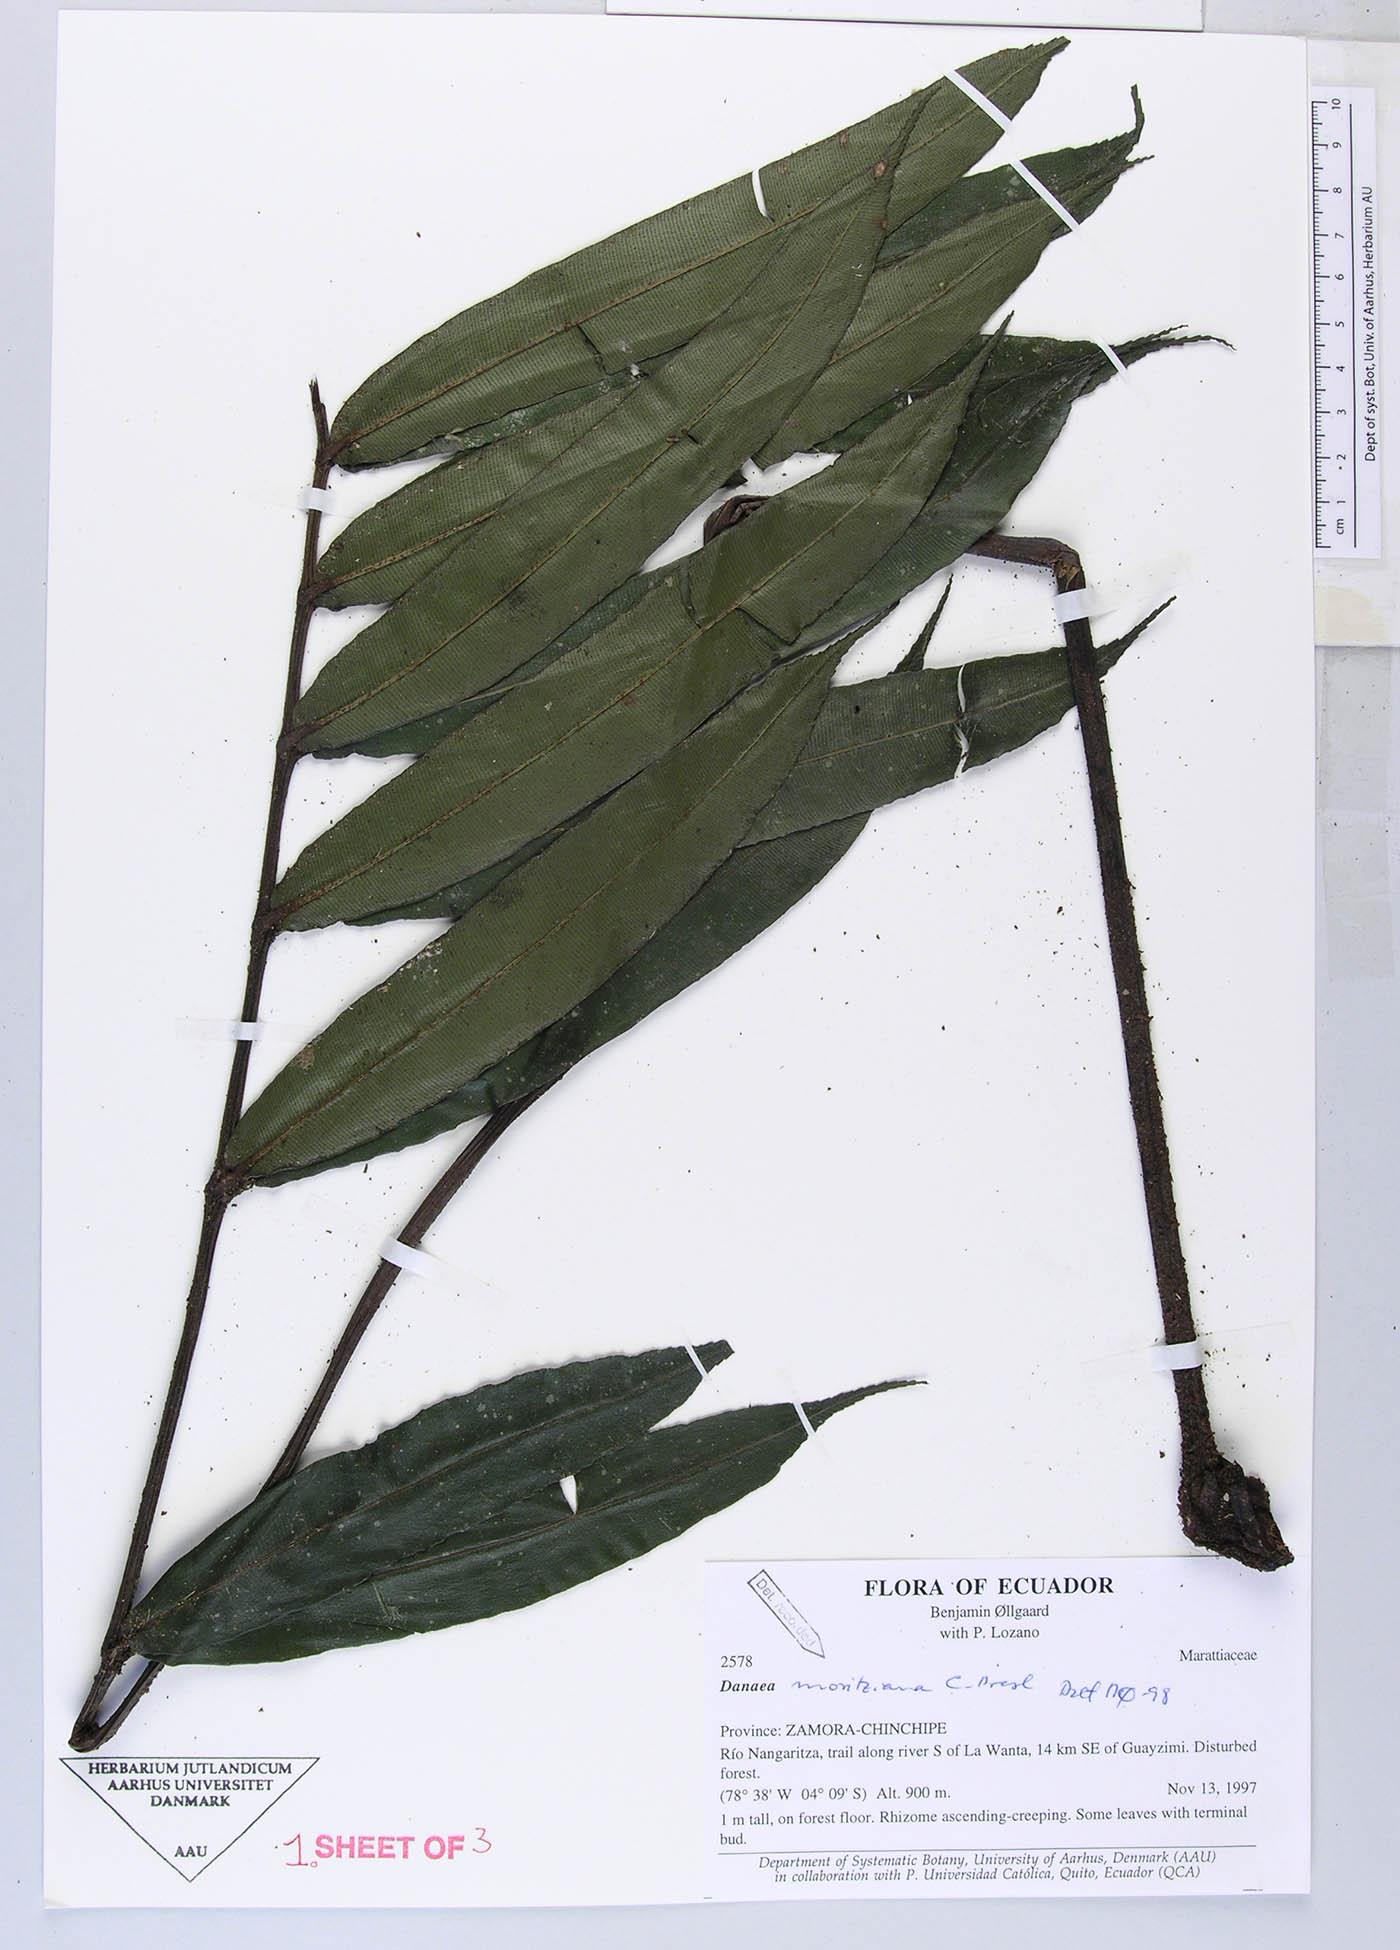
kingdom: Plantae
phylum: Tracheophyta
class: Polypodiopsida
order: Marattiales
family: Marattiaceae
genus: Danaea
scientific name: Danaea
